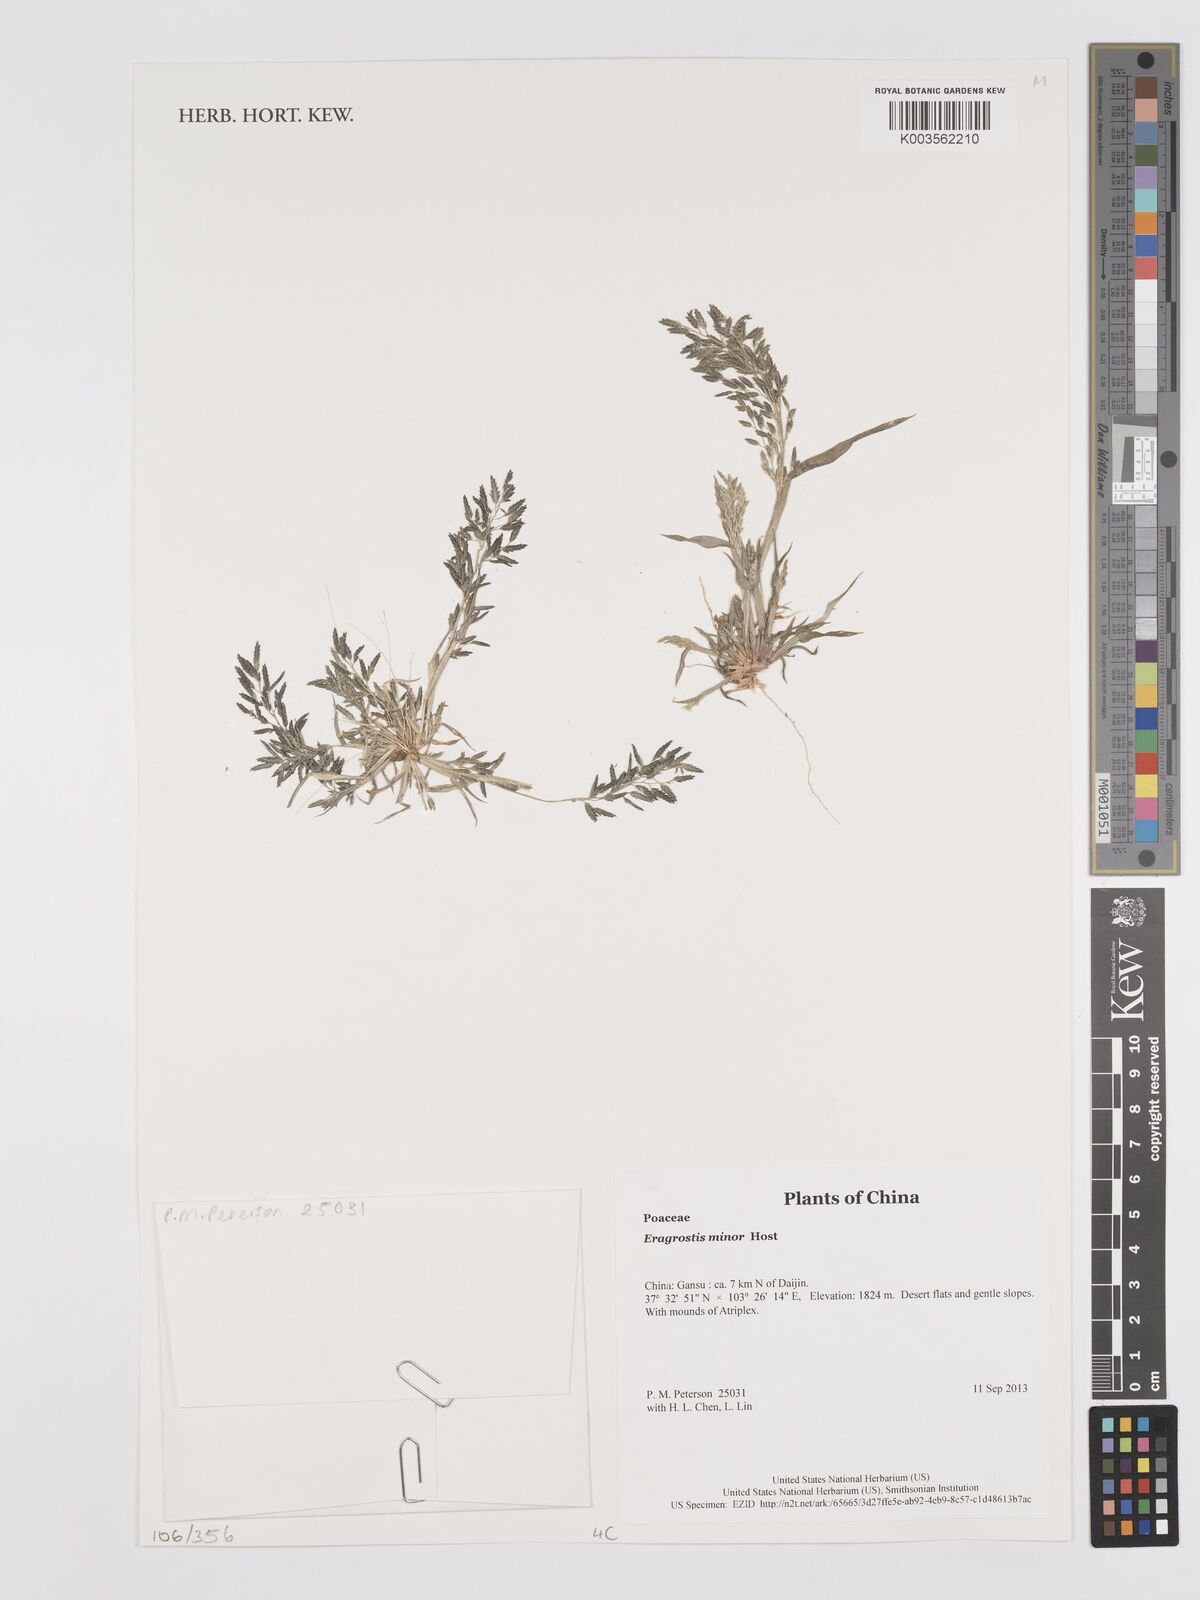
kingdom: Plantae
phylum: Tracheophyta
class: Liliopsida
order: Poales
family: Poaceae
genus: Eragrostis
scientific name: Eragrostis minor
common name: Small love-grass
